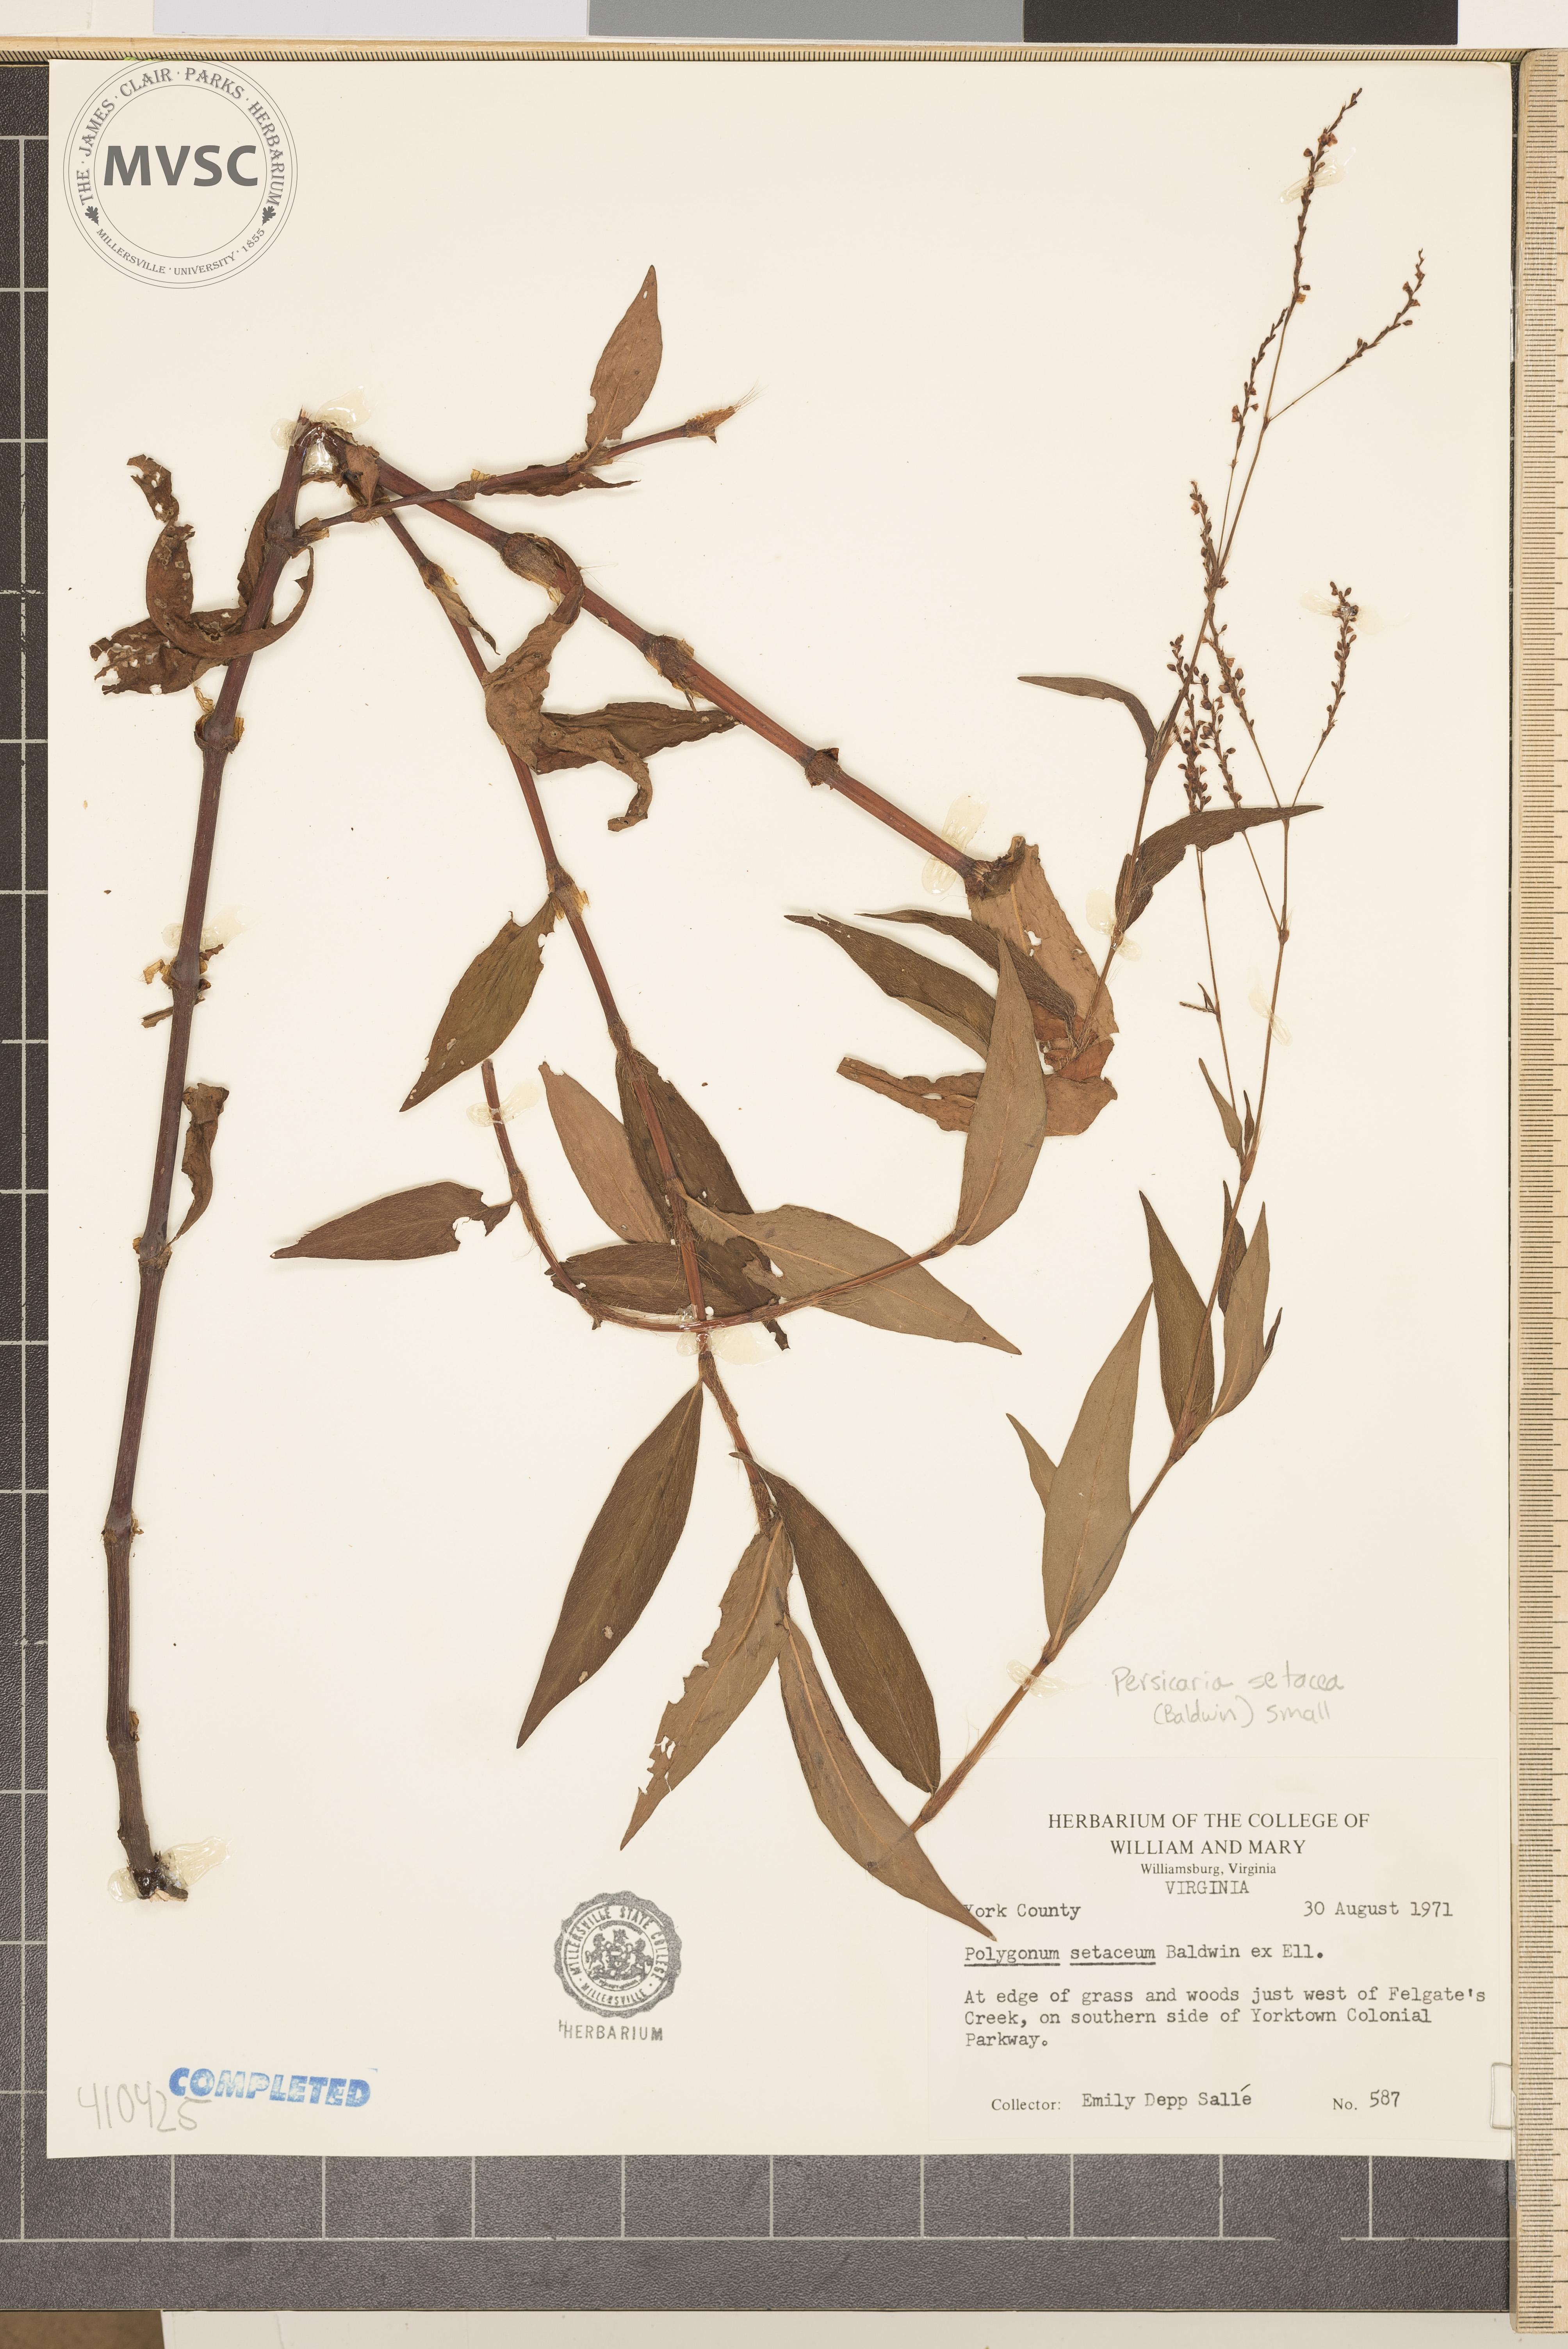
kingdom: Plantae
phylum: Tracheophyta
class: Magnoliopsida
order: Caryophyllales
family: Polygonaceae
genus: Persicaria
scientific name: Persicaria setacea
